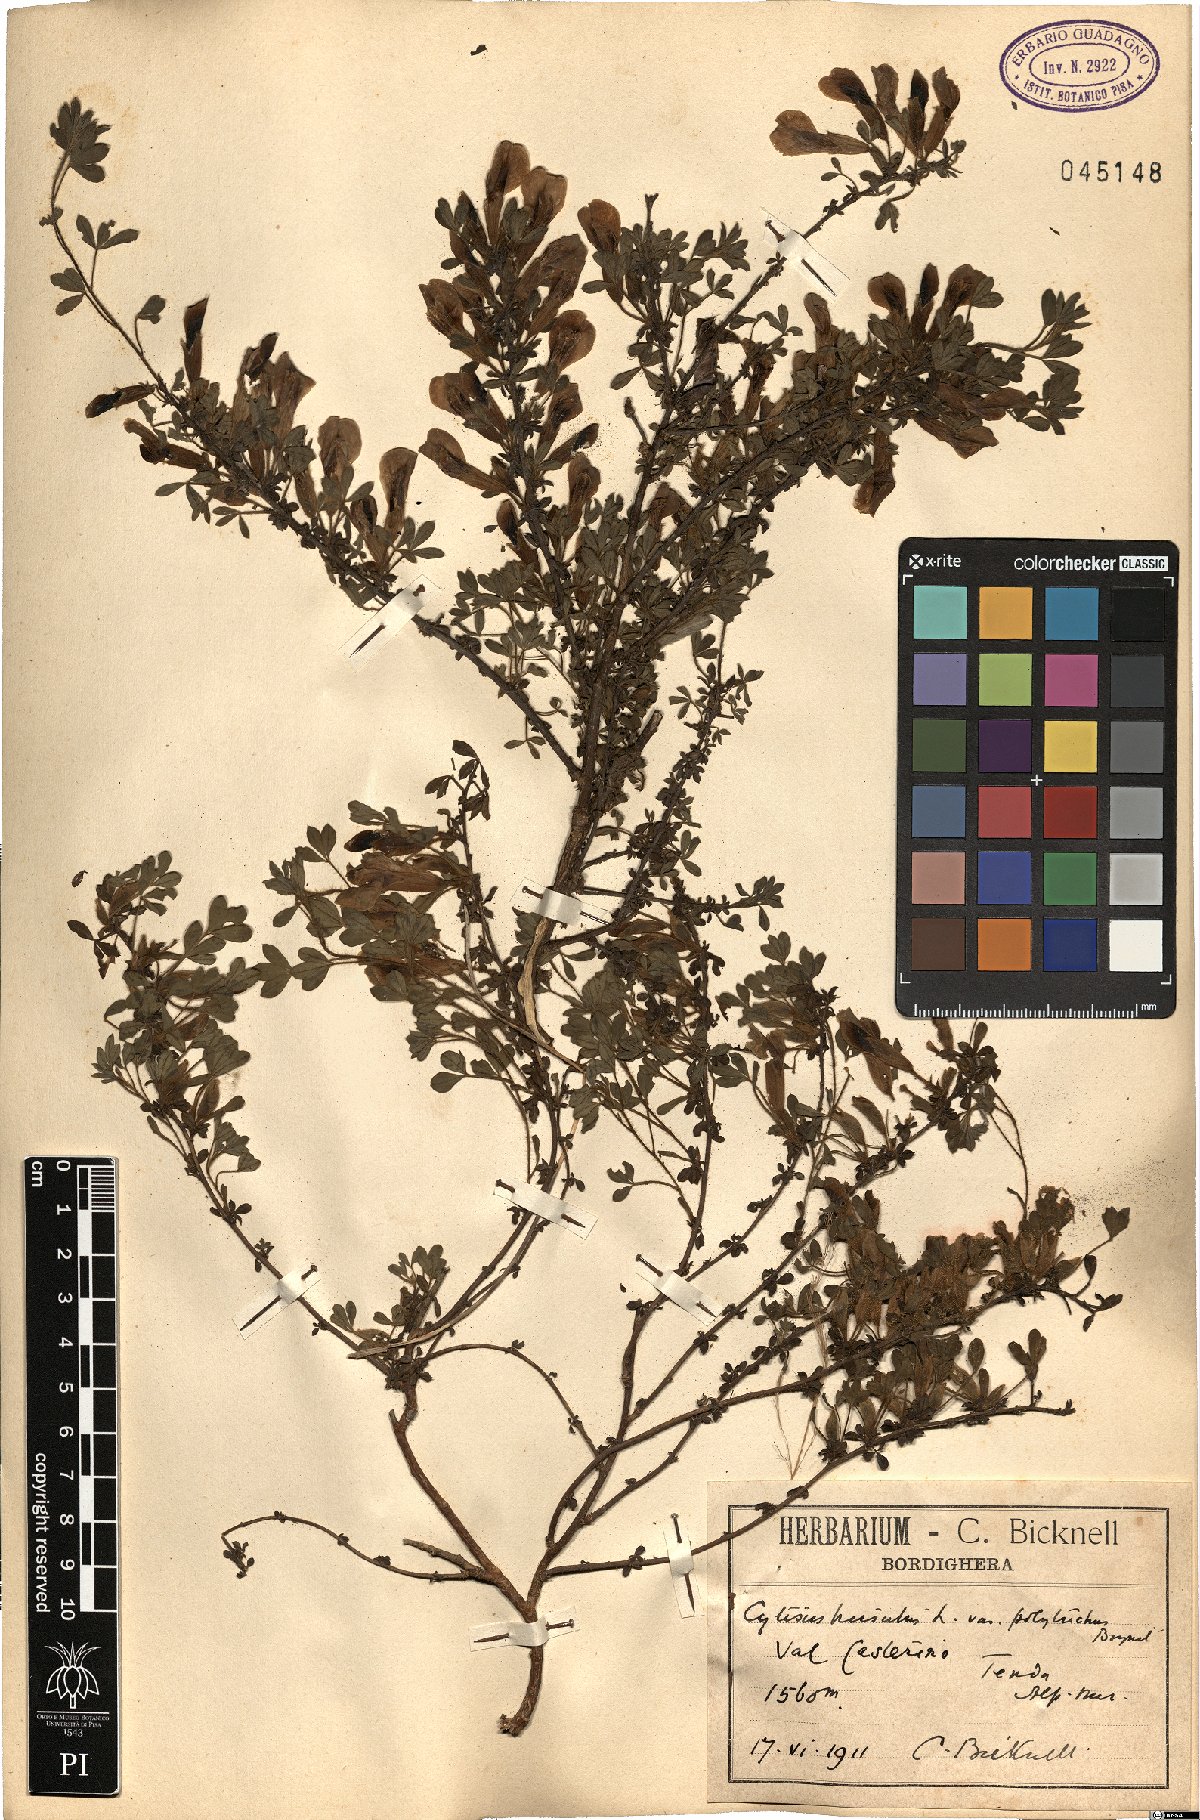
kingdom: Plantae
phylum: Tracheophyta
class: Magnoliopsida
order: Fabales
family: Fabaceae
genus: Chamaecytisus
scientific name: Chamaecytisus hirsutus
